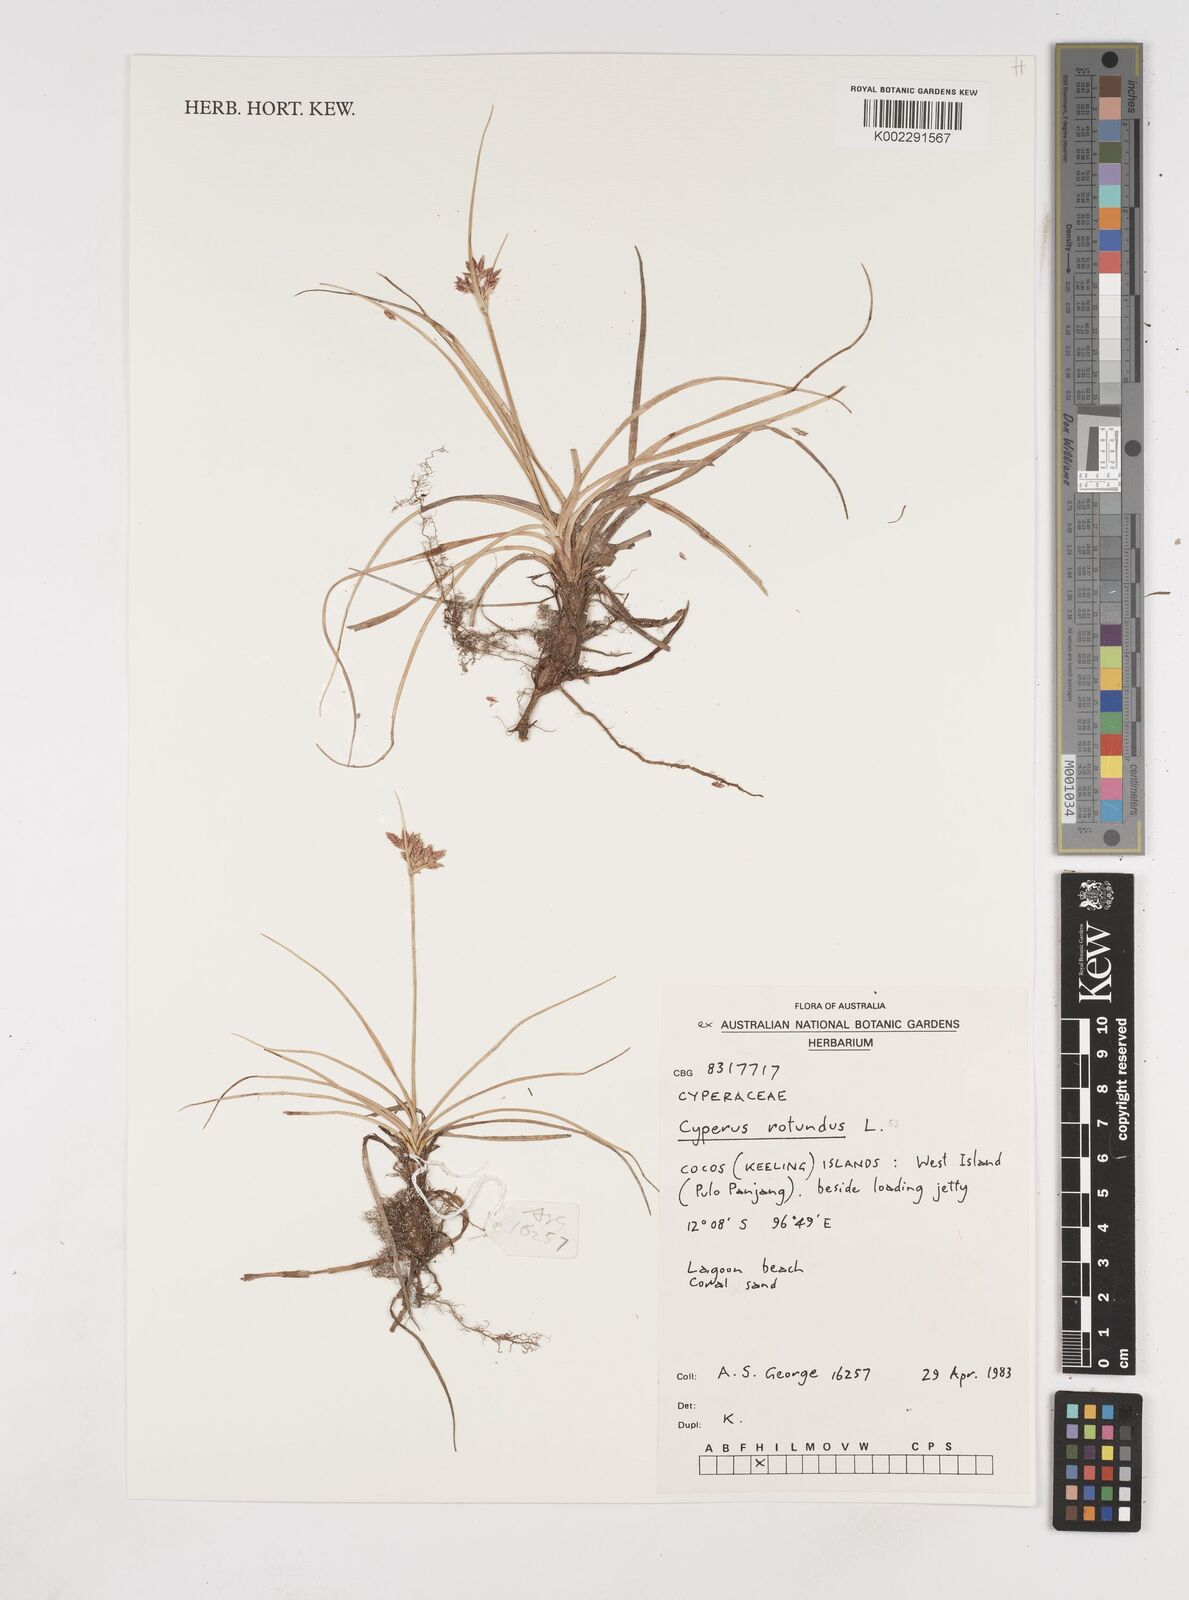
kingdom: Plantae
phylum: Tracheophyta
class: Liliopsida
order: Poales
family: Cyperaceae
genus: Cyperus
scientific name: Cyperus rotundus
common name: Nutgrass
